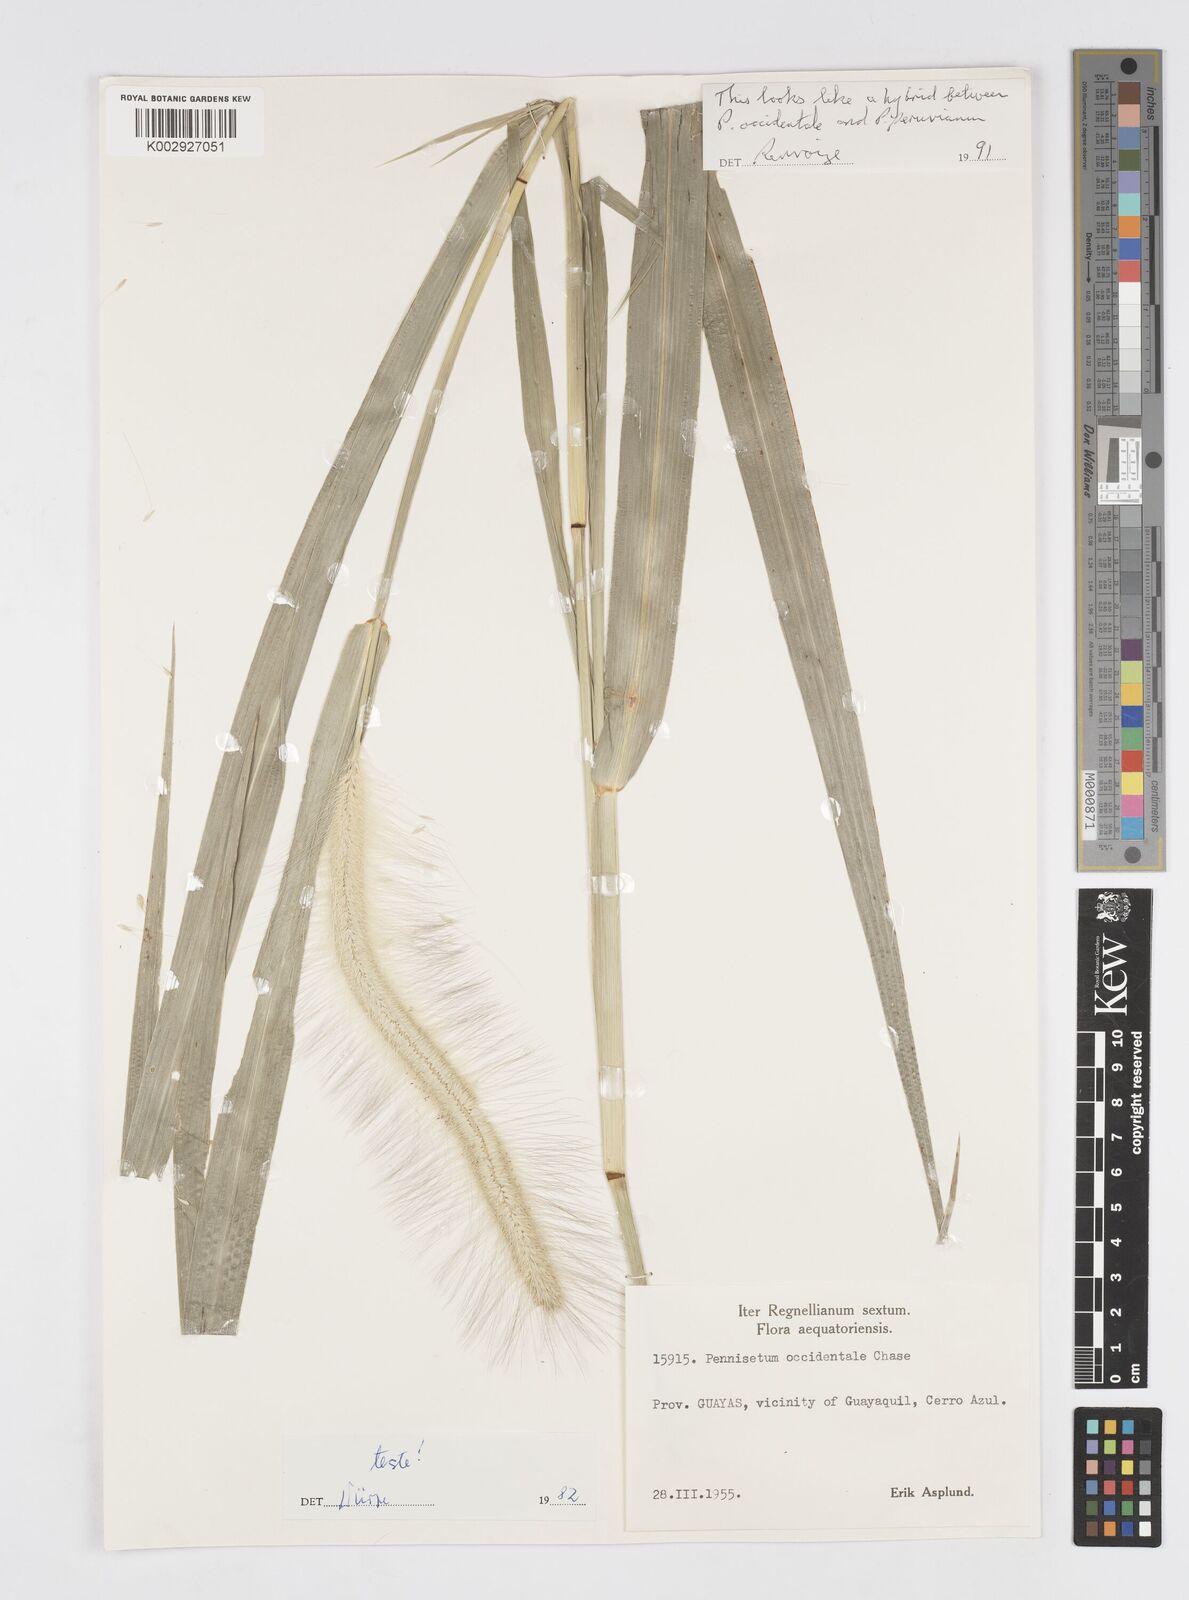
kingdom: Plantae
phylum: Tracheophyta
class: Liliopsida
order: Poales
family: Poaceae
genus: Cenchrus
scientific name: Cenchrus occidentalis
